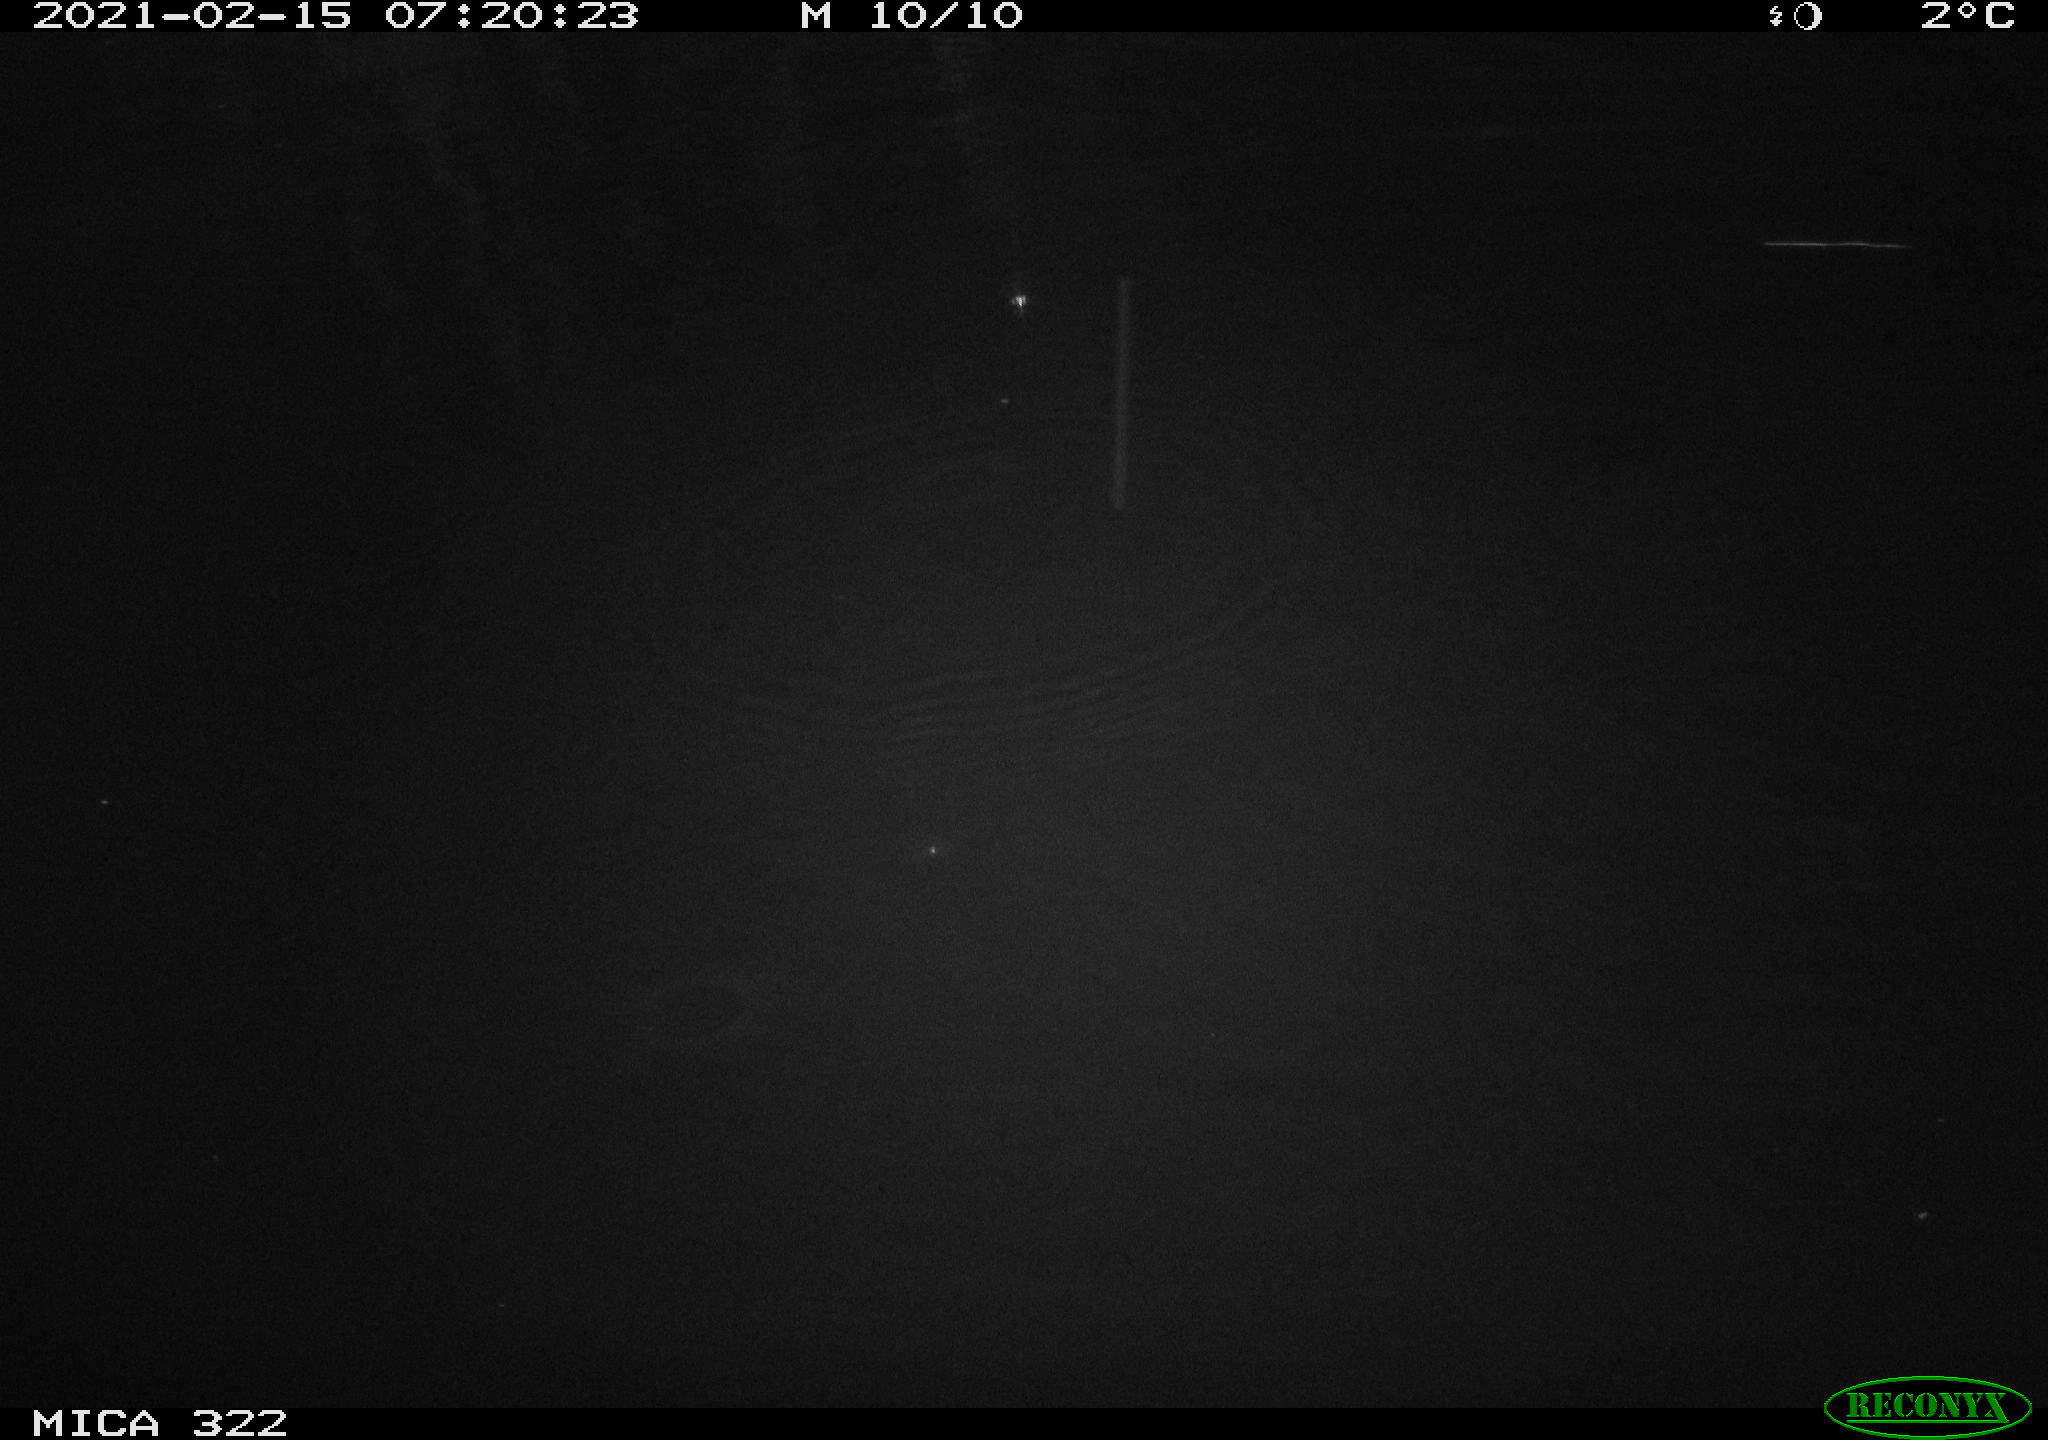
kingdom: Animalia
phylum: Chordata
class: Aves
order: Gruiformes
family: Rallidae
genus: Fulica
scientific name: Fulica atra
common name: Eurasian coot
